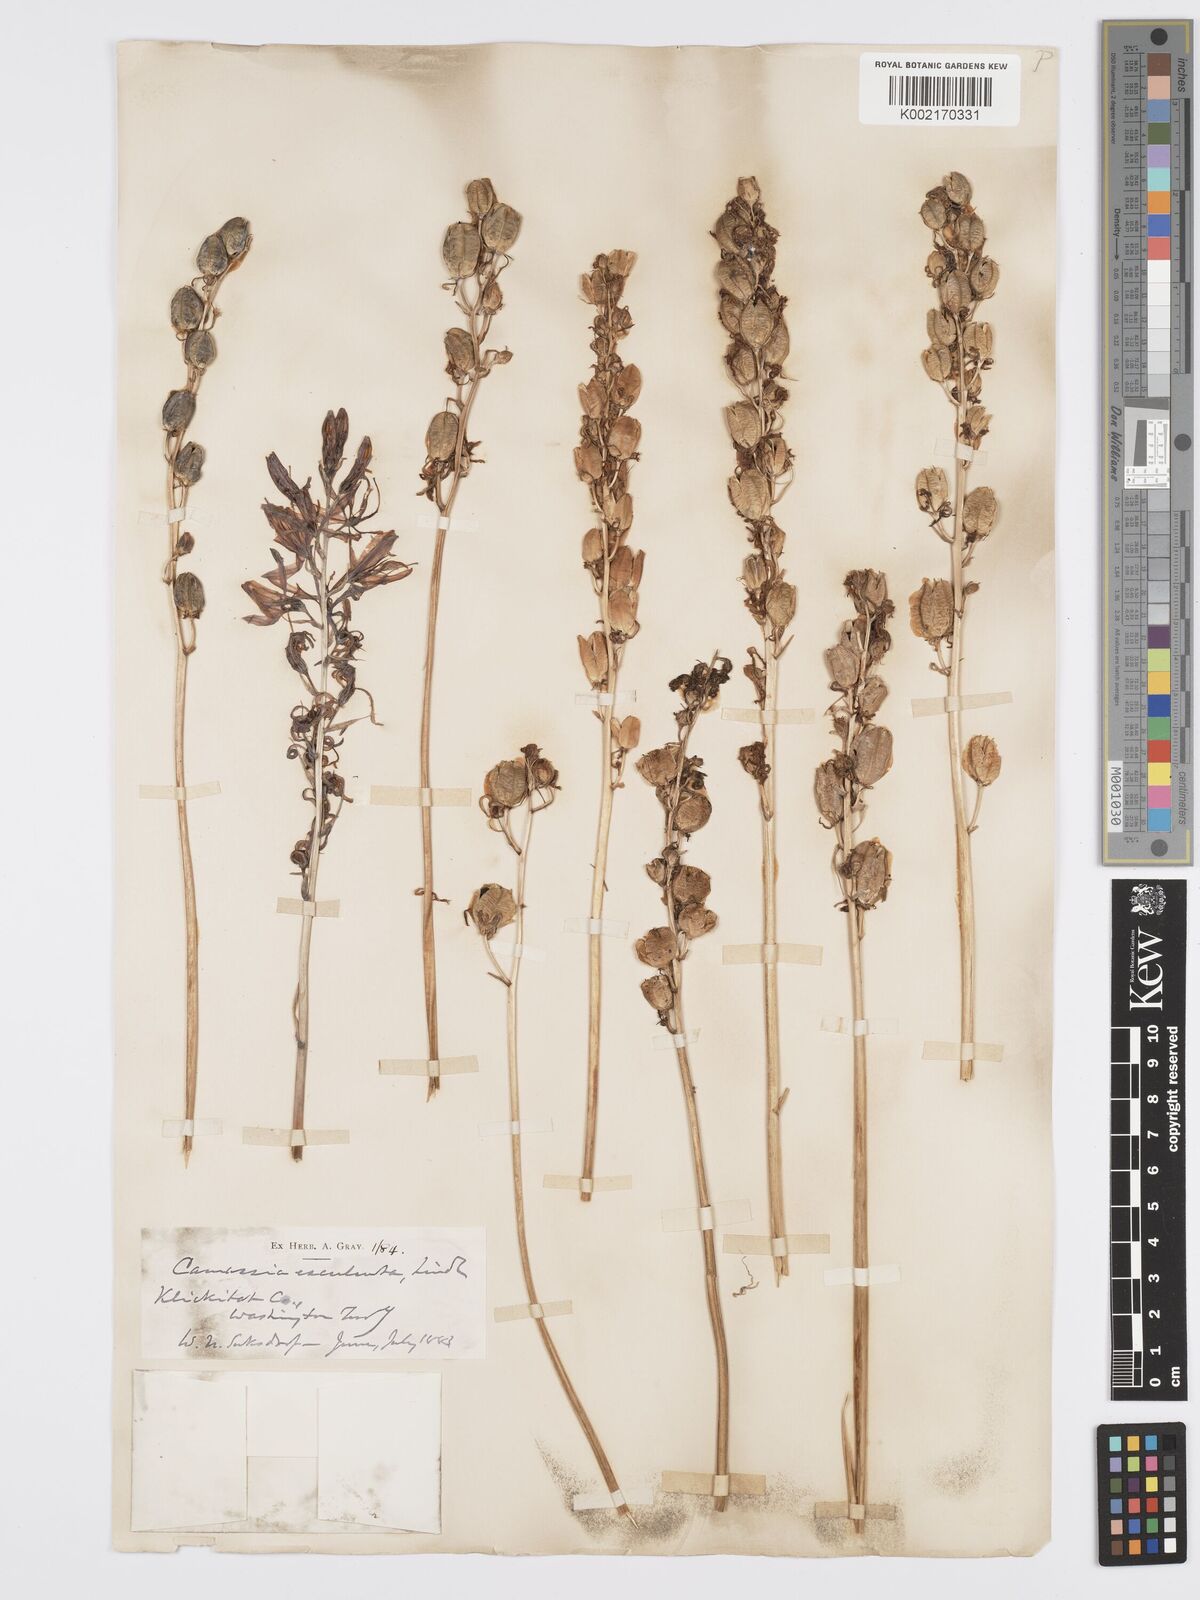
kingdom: Plantae
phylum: Tracheophyta
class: Liliopsida
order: Asparagales
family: Asparagaceae
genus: Camassia
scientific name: Camassia quamash
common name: Common camas
